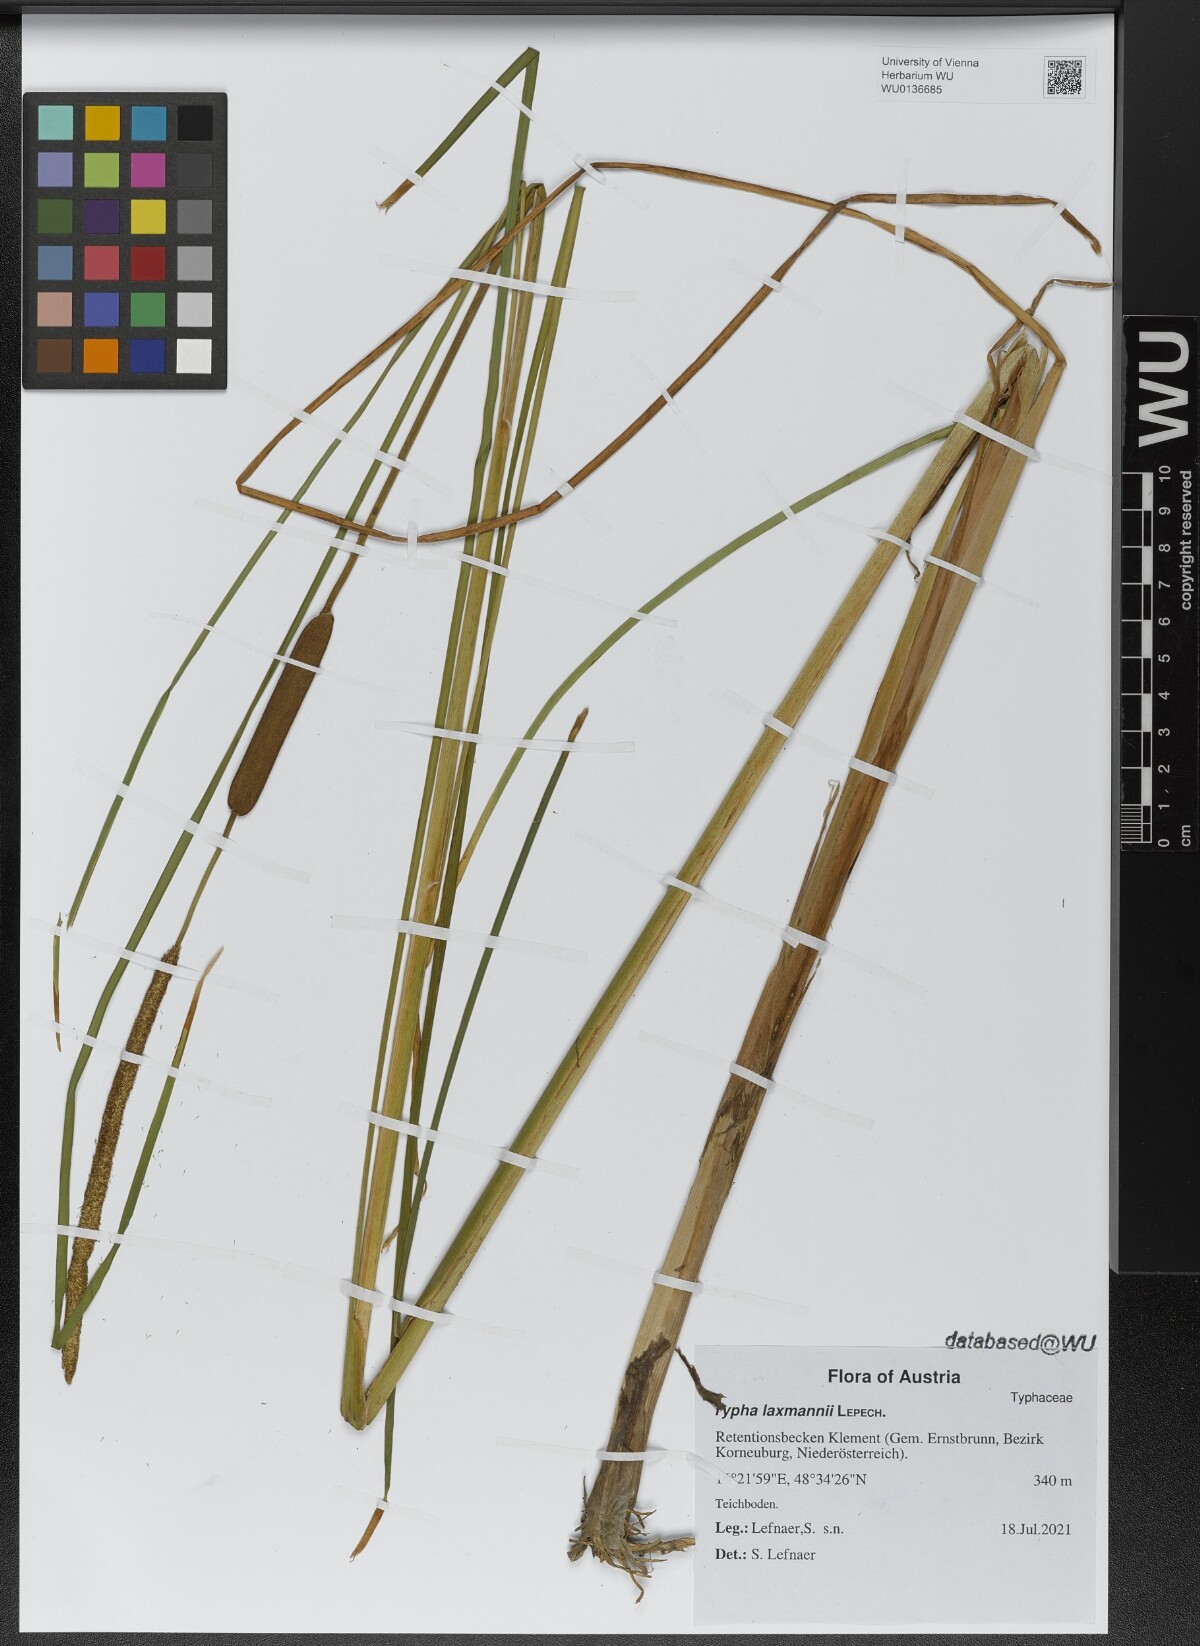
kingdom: Plantae
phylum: Tracheophyta
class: Liliopsida
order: Poales
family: Typhaceae
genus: Typha
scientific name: Typha laxmannii
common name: Laxman’s bulrush
